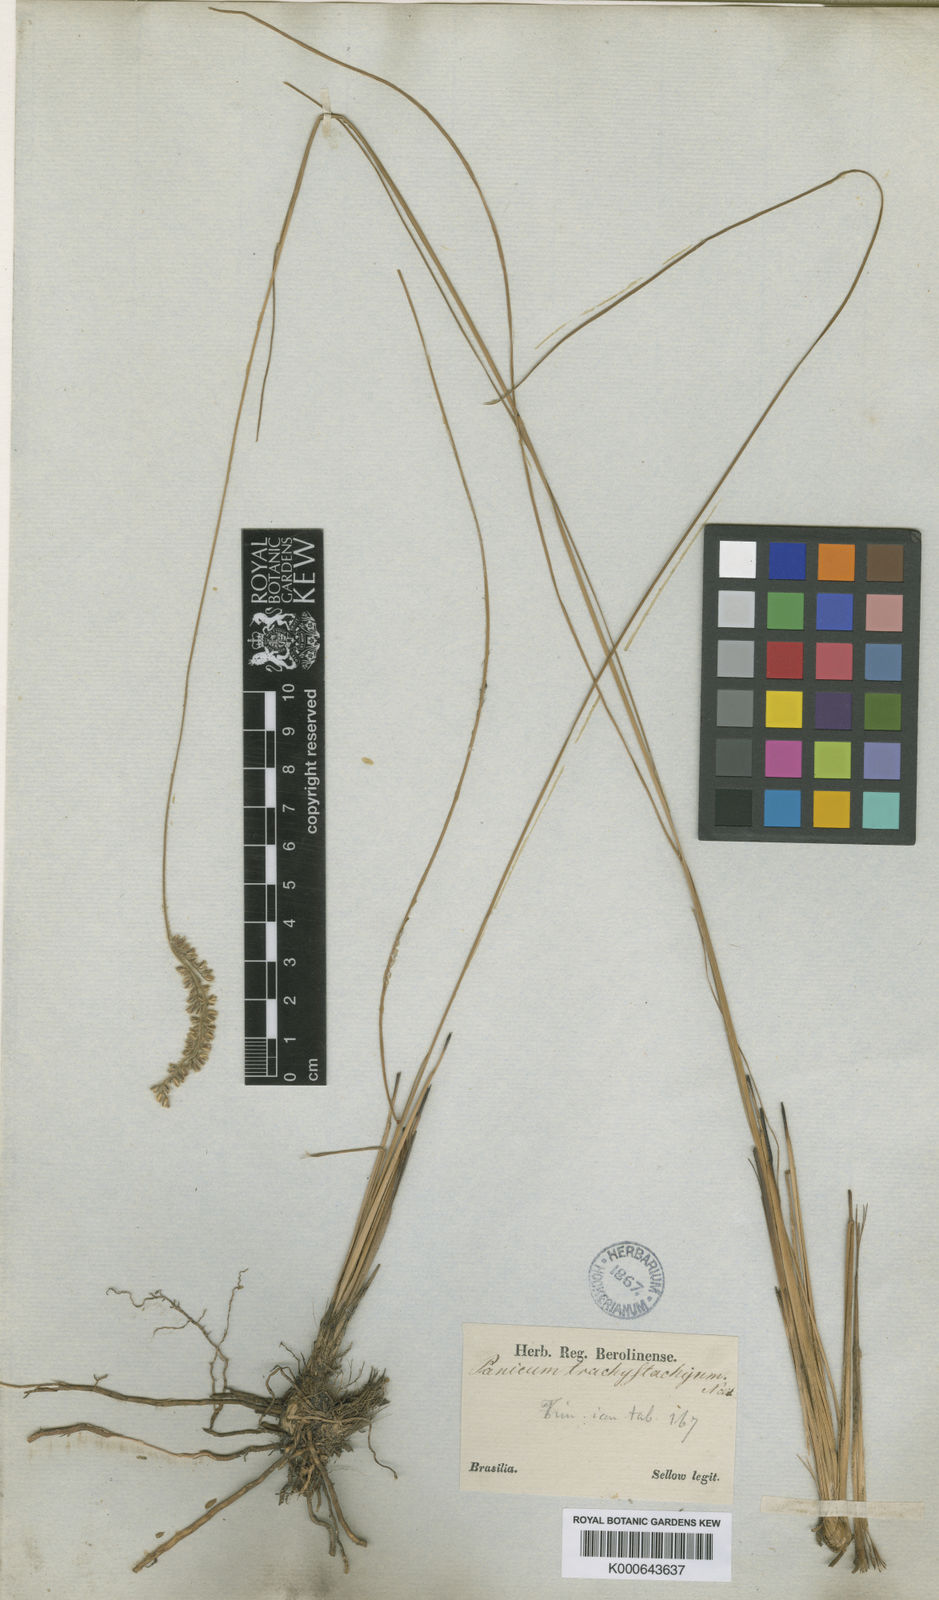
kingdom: Plantae
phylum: Tracheophyta
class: Liliopsida
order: Poales
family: Poaceae
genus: Anthaenantiopsis
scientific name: Anthaenantiopsis trachystachya
